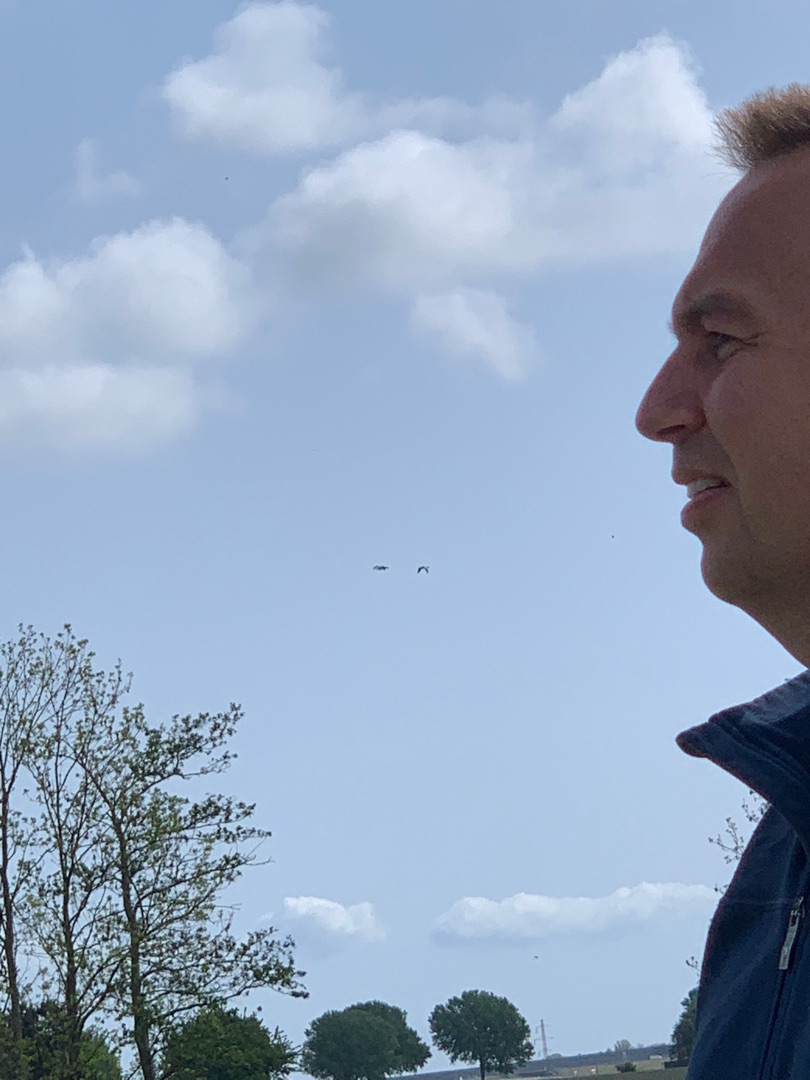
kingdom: Animalia
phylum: Chordata
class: Aves
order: Anseriformes
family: Anatidae
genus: Tadorna
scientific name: Tadorna tadorna
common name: Gravand
